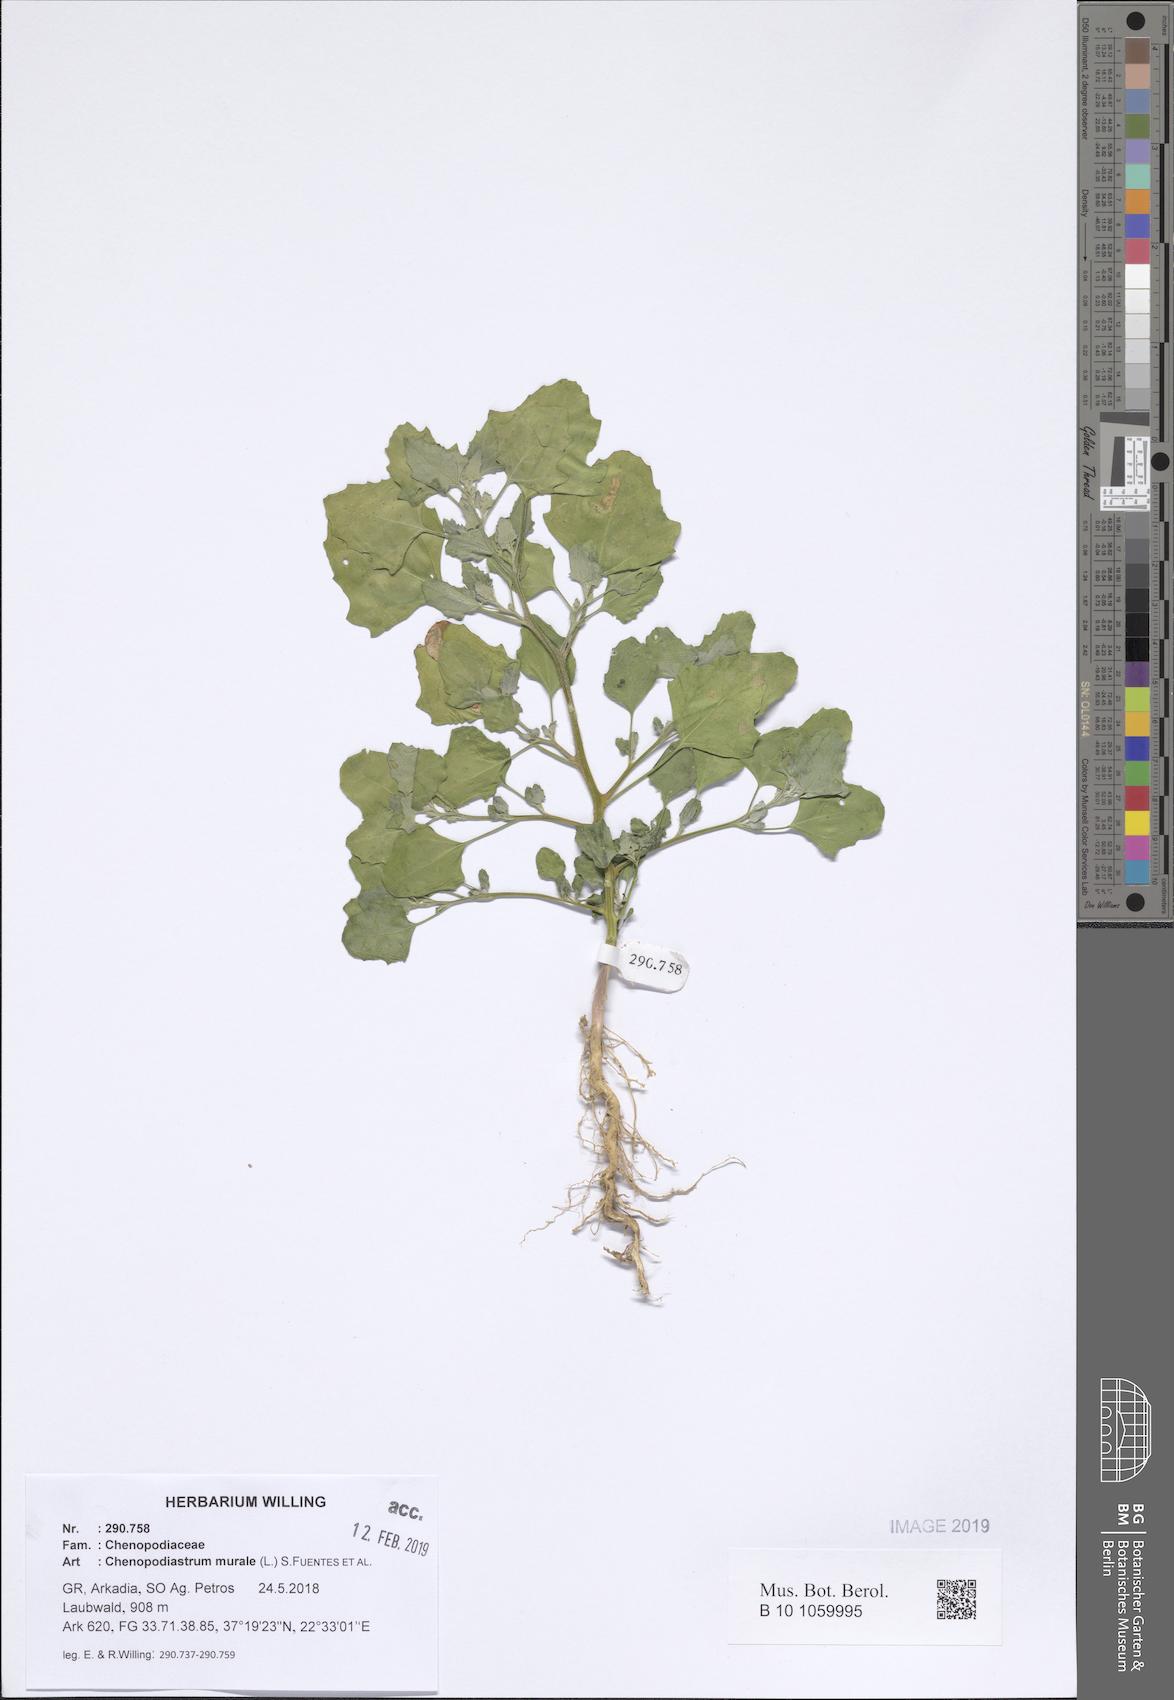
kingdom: Plantae
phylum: Tracheophyta
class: Magnoliopsida
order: Caryophyllales
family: Amaranthaceae
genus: Chenopodiastrum
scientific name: Chenopodiastrum murale
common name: Sowbane
